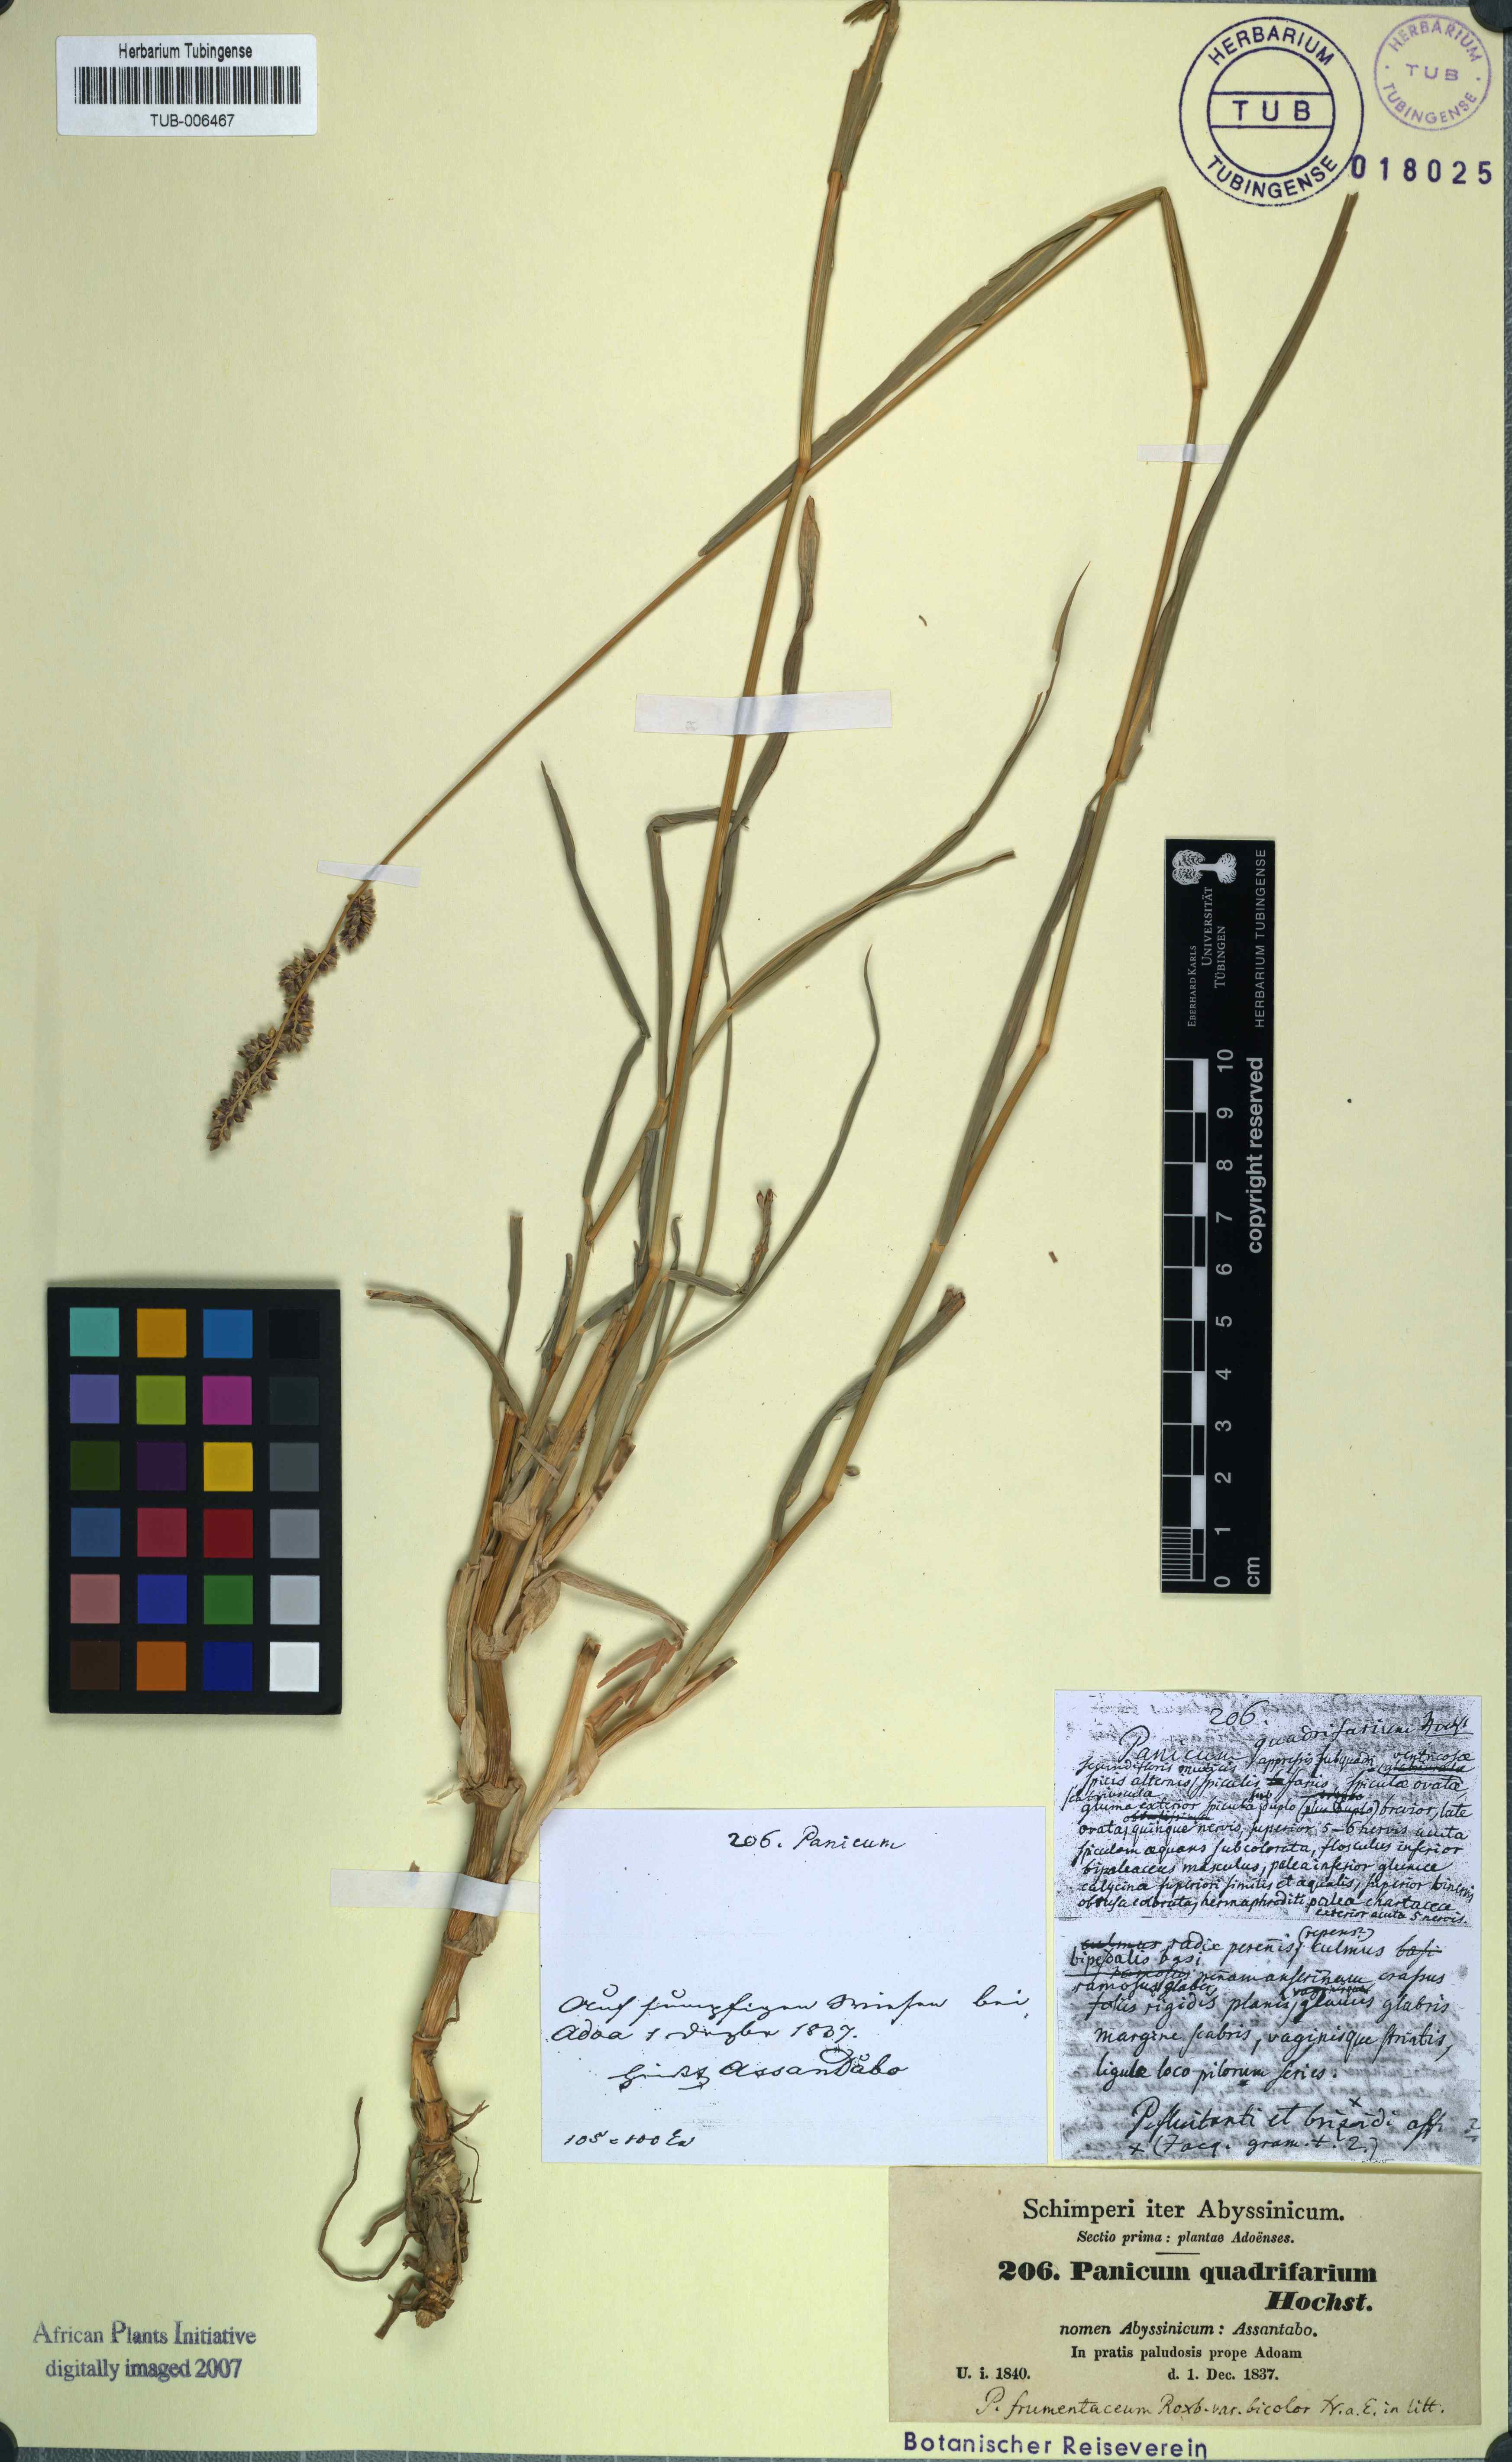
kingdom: Plantae
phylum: Tracheophyta
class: Liliopsida
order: Poales
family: Poaceae
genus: Panicum
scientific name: Panicum quadrifarium
